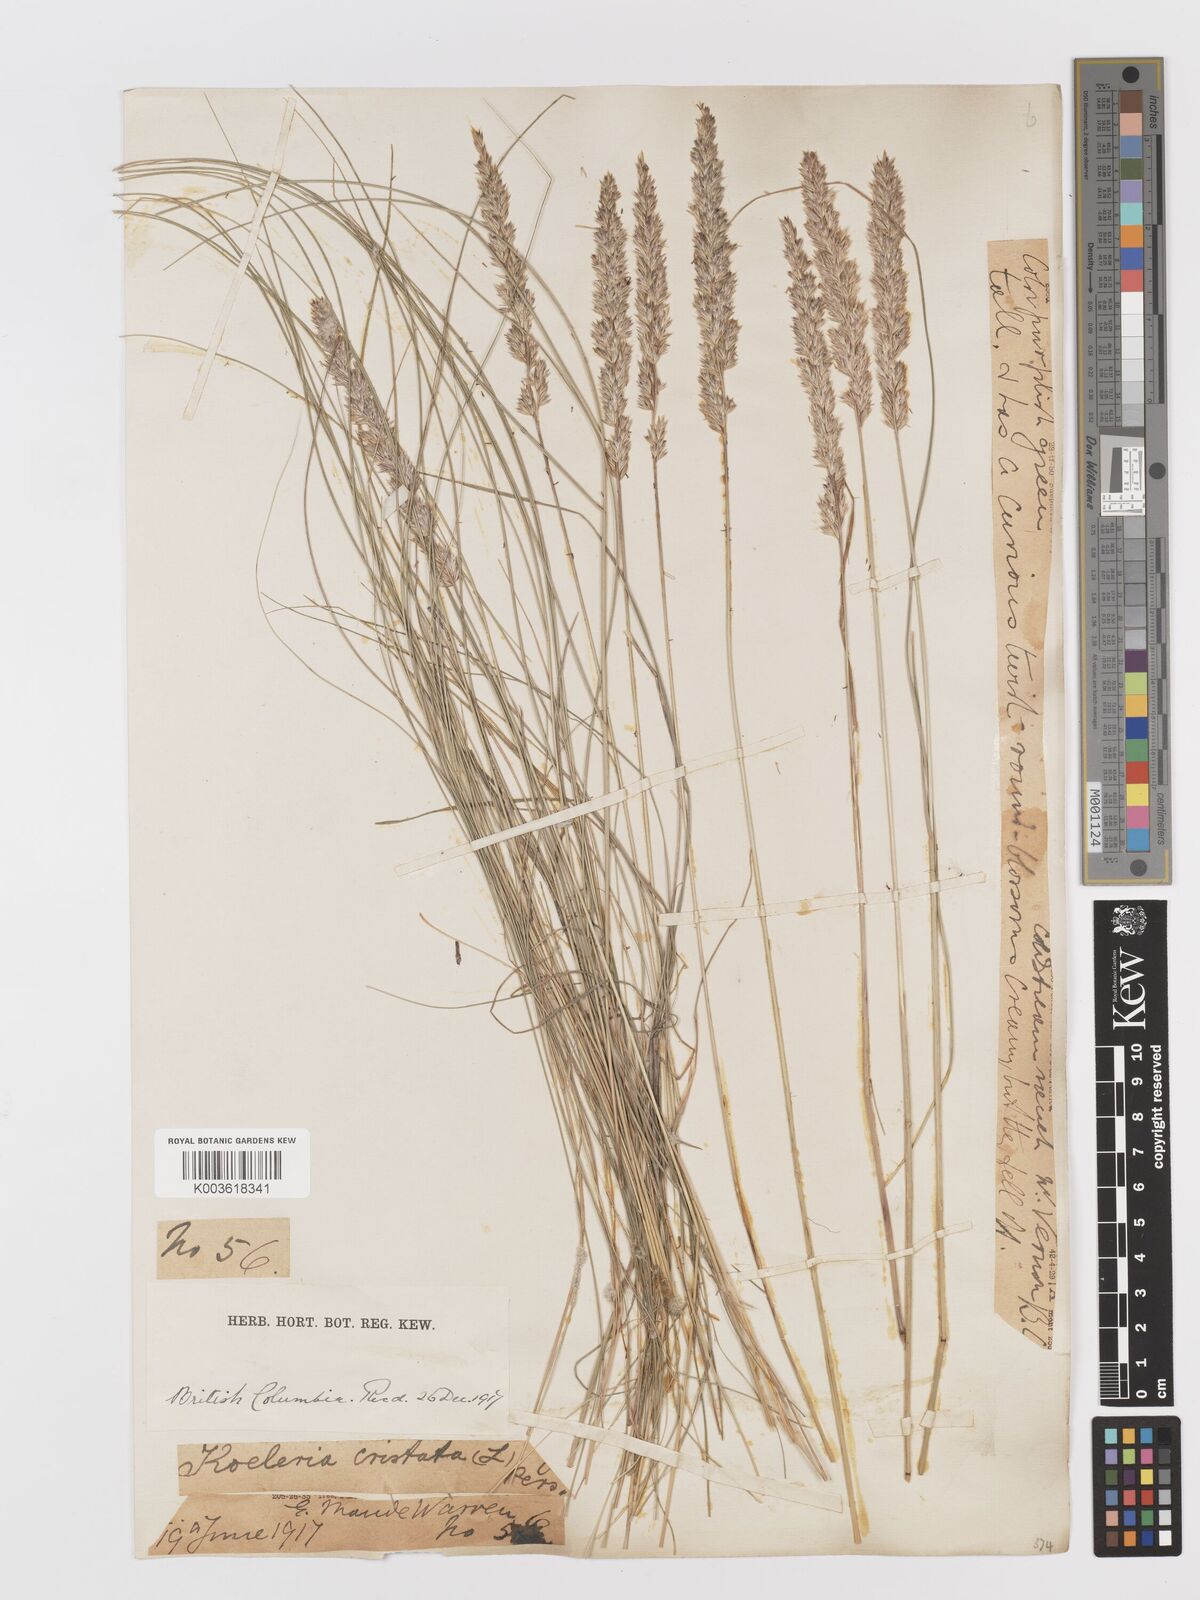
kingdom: Plantae
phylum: Tracheophyta
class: Liliopsida
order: Poales
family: Poaceae
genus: Koeleria
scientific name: Koeleria
